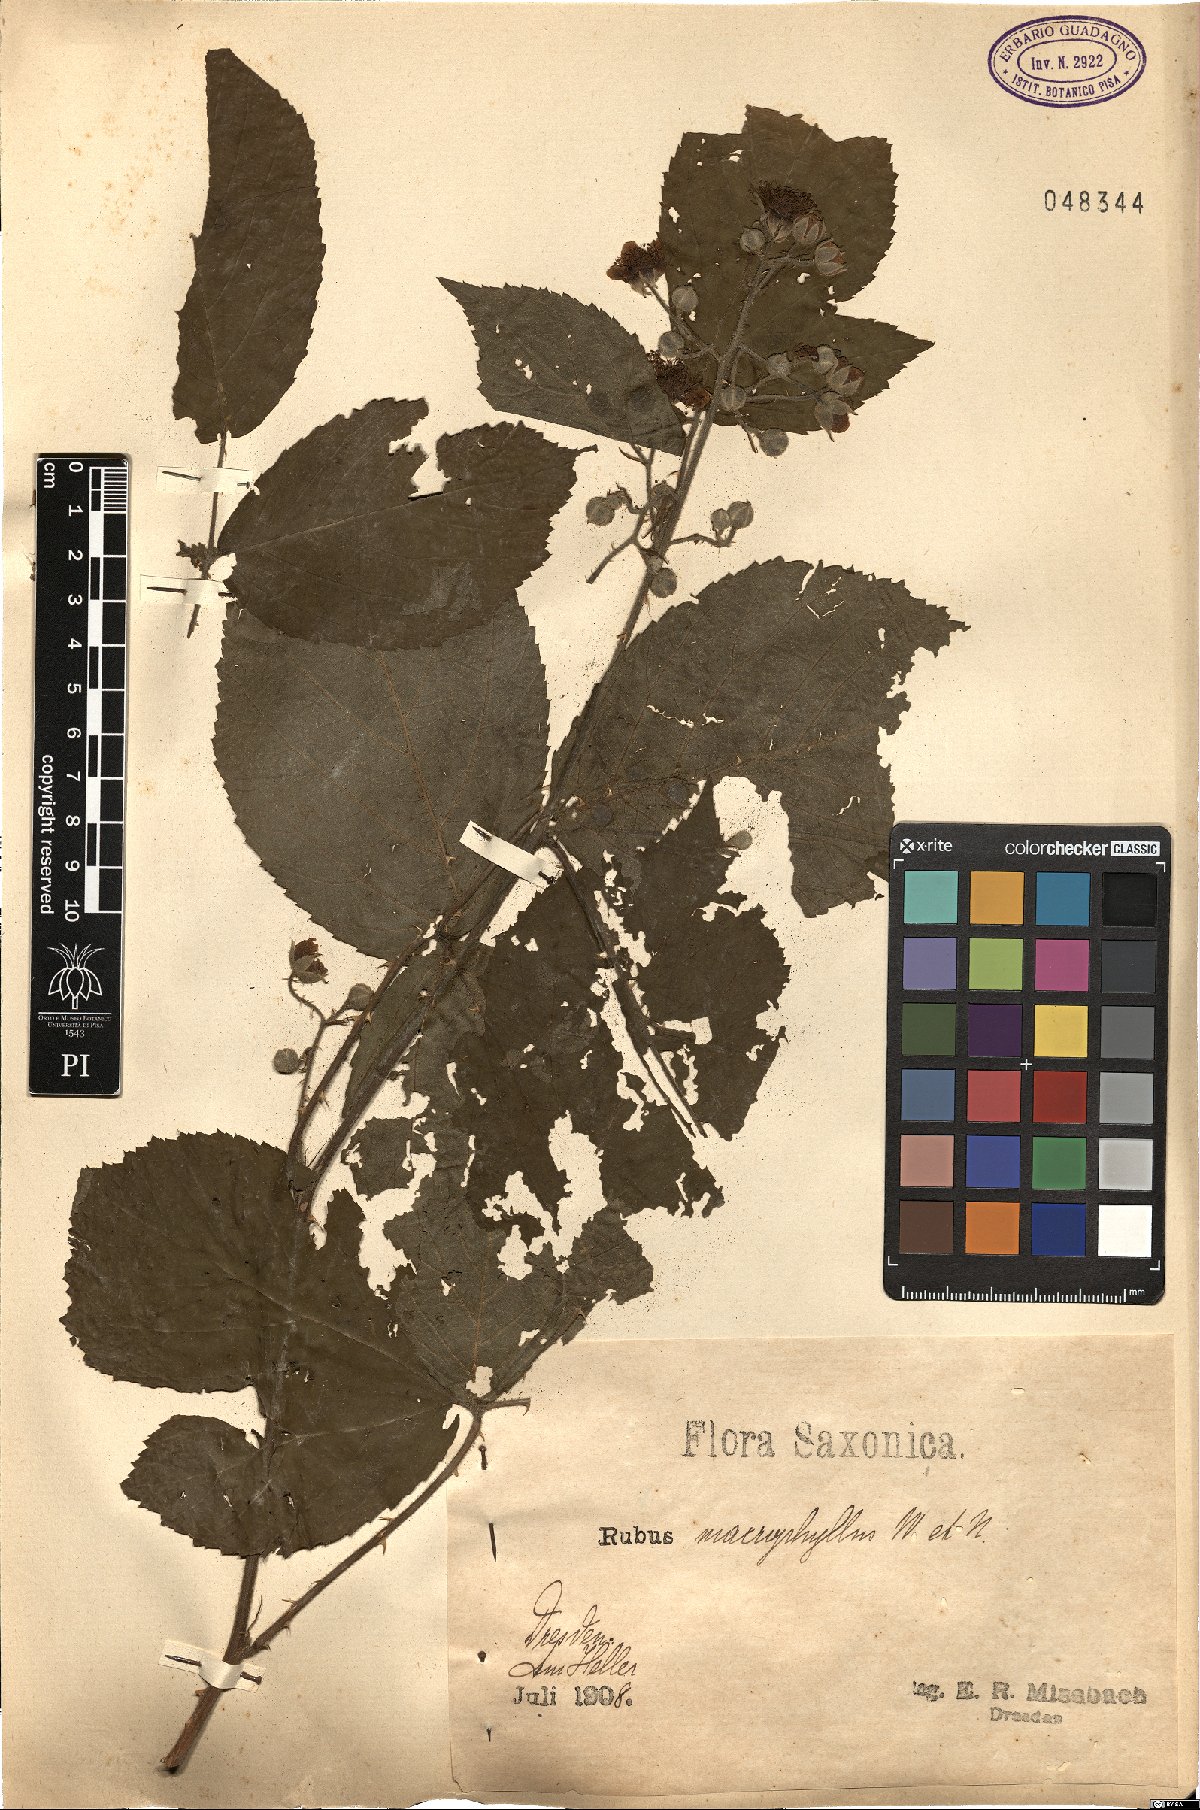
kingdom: Plantae
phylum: Tracheophyta
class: Magnoliopsida
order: Rosales
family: Rosaceae
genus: Rubus
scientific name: Rubus macrophyllus
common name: Largeleaf blackberry
